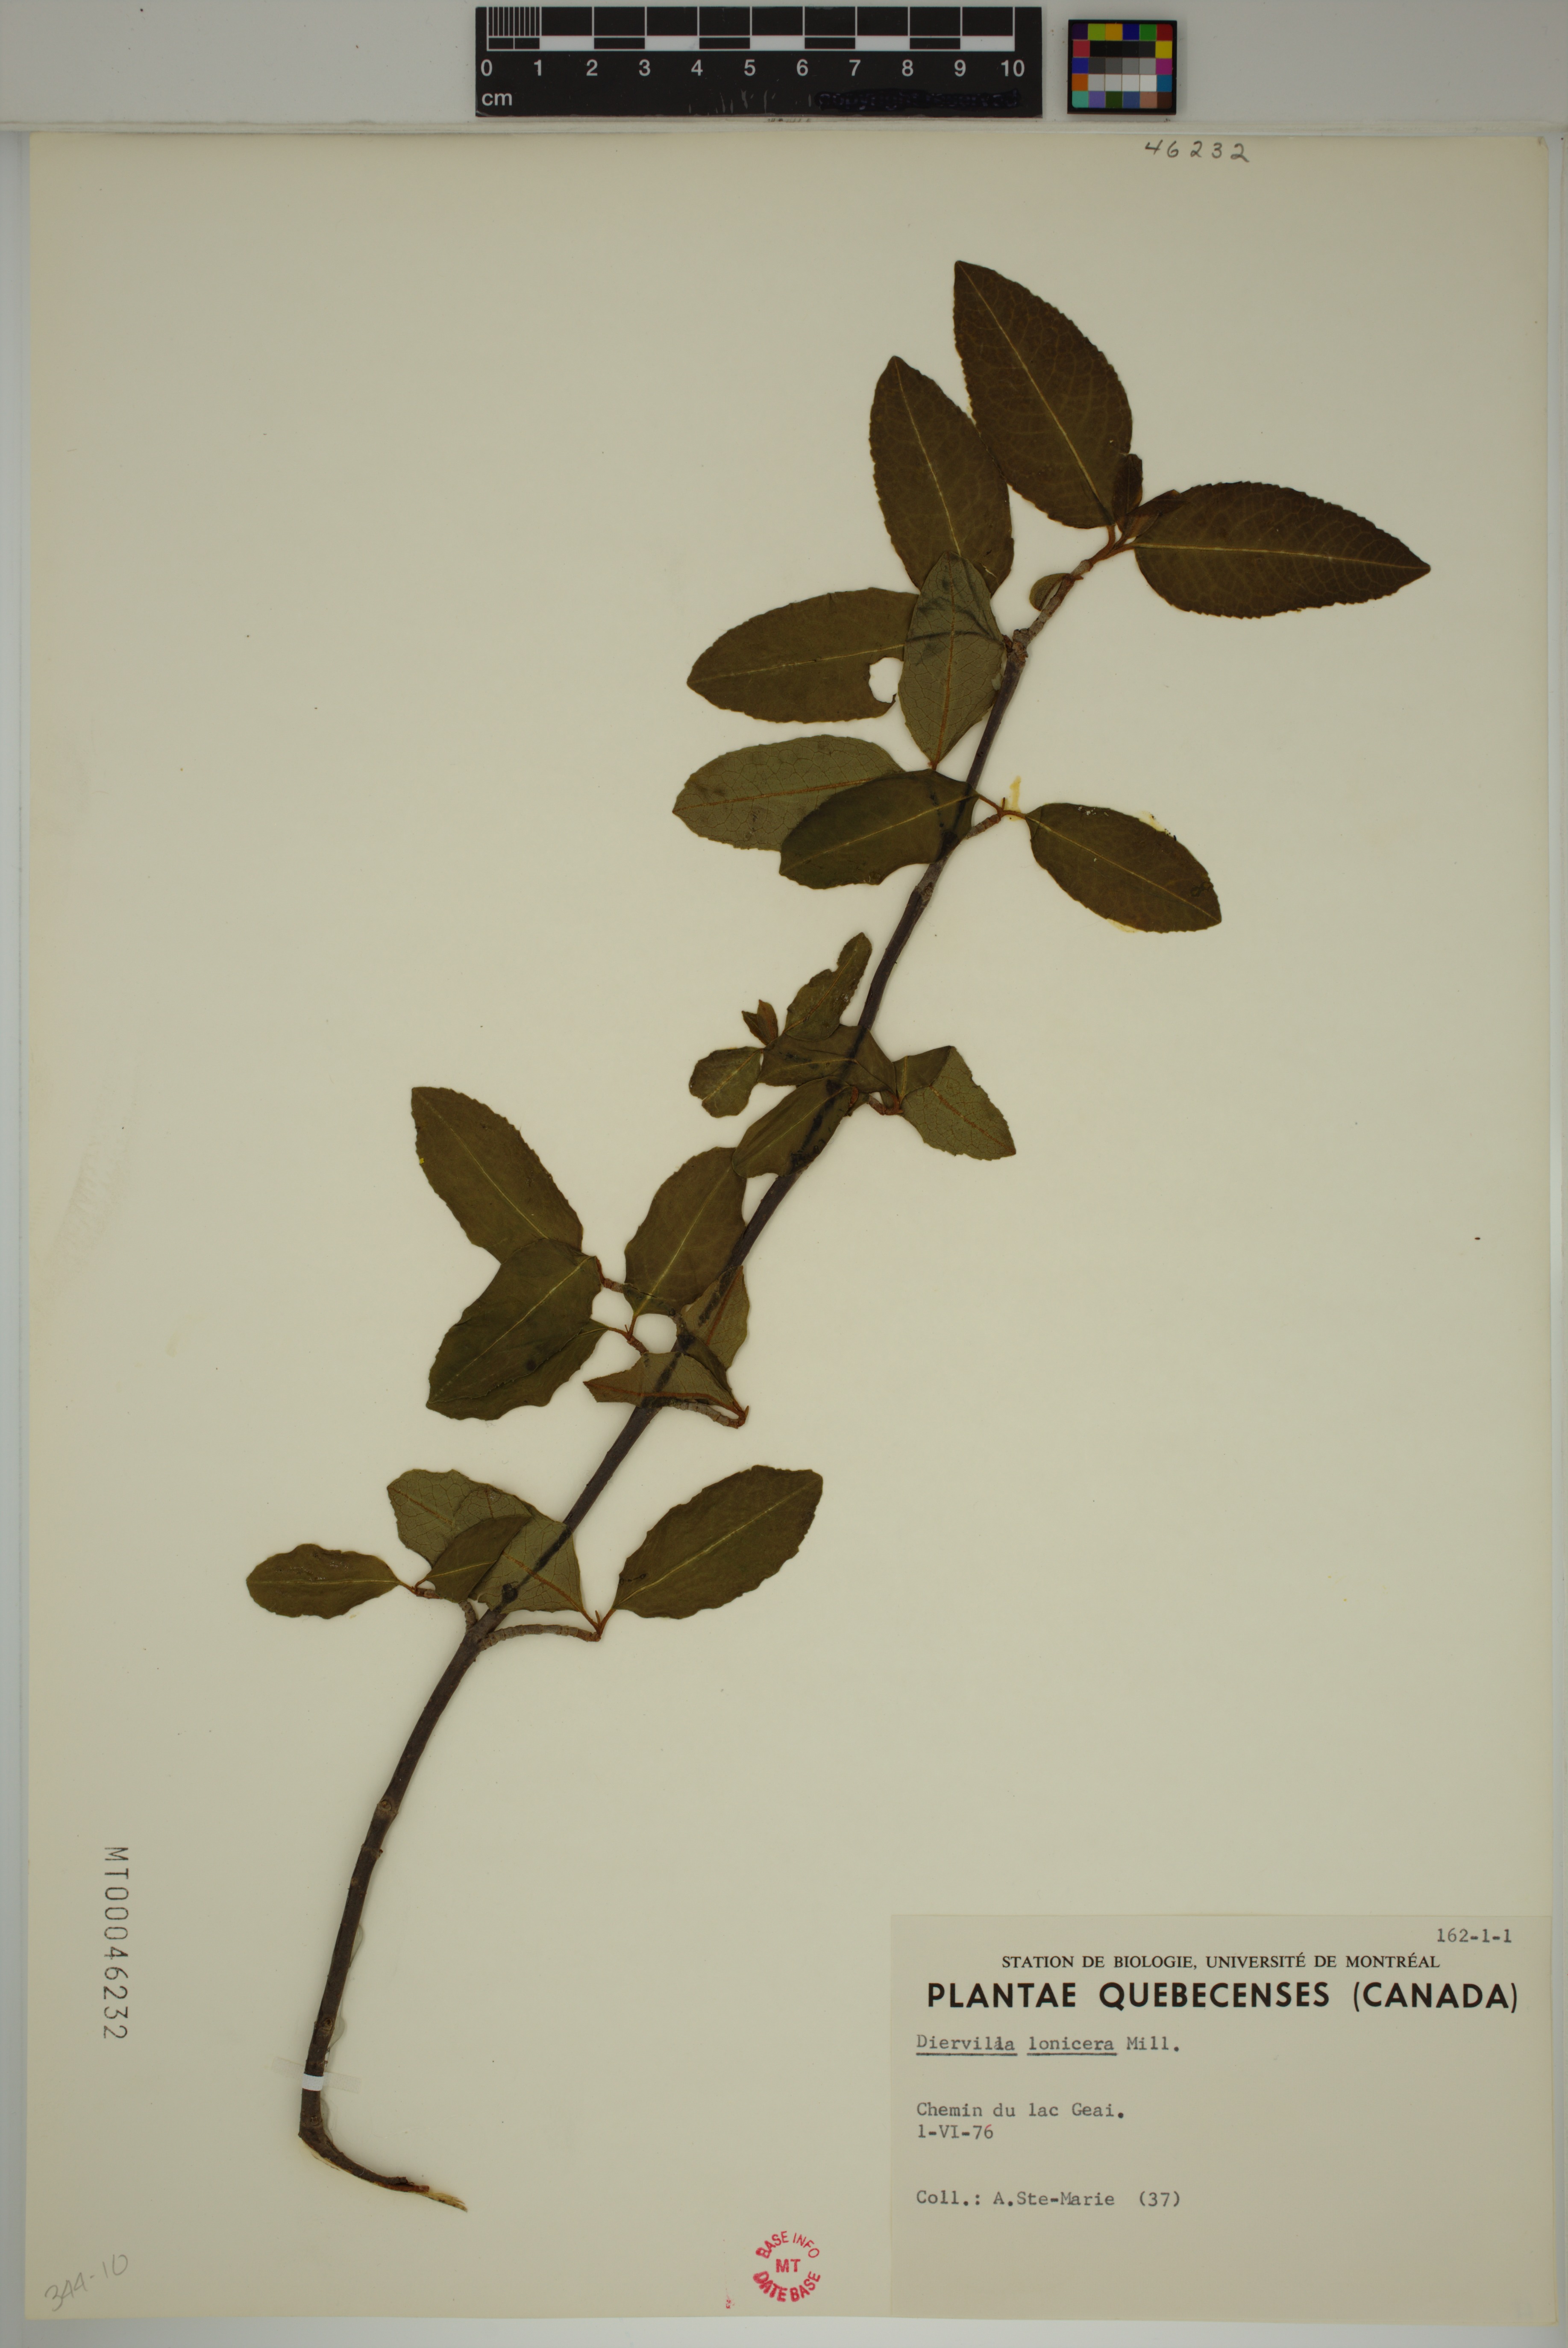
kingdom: Plantae
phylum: Tracheophyta
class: Magnoliopsida
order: Dipsacales
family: Caprifoliaceae
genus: Diervilla
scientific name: Diervilla lonicera
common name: Bush-honeysuckle
